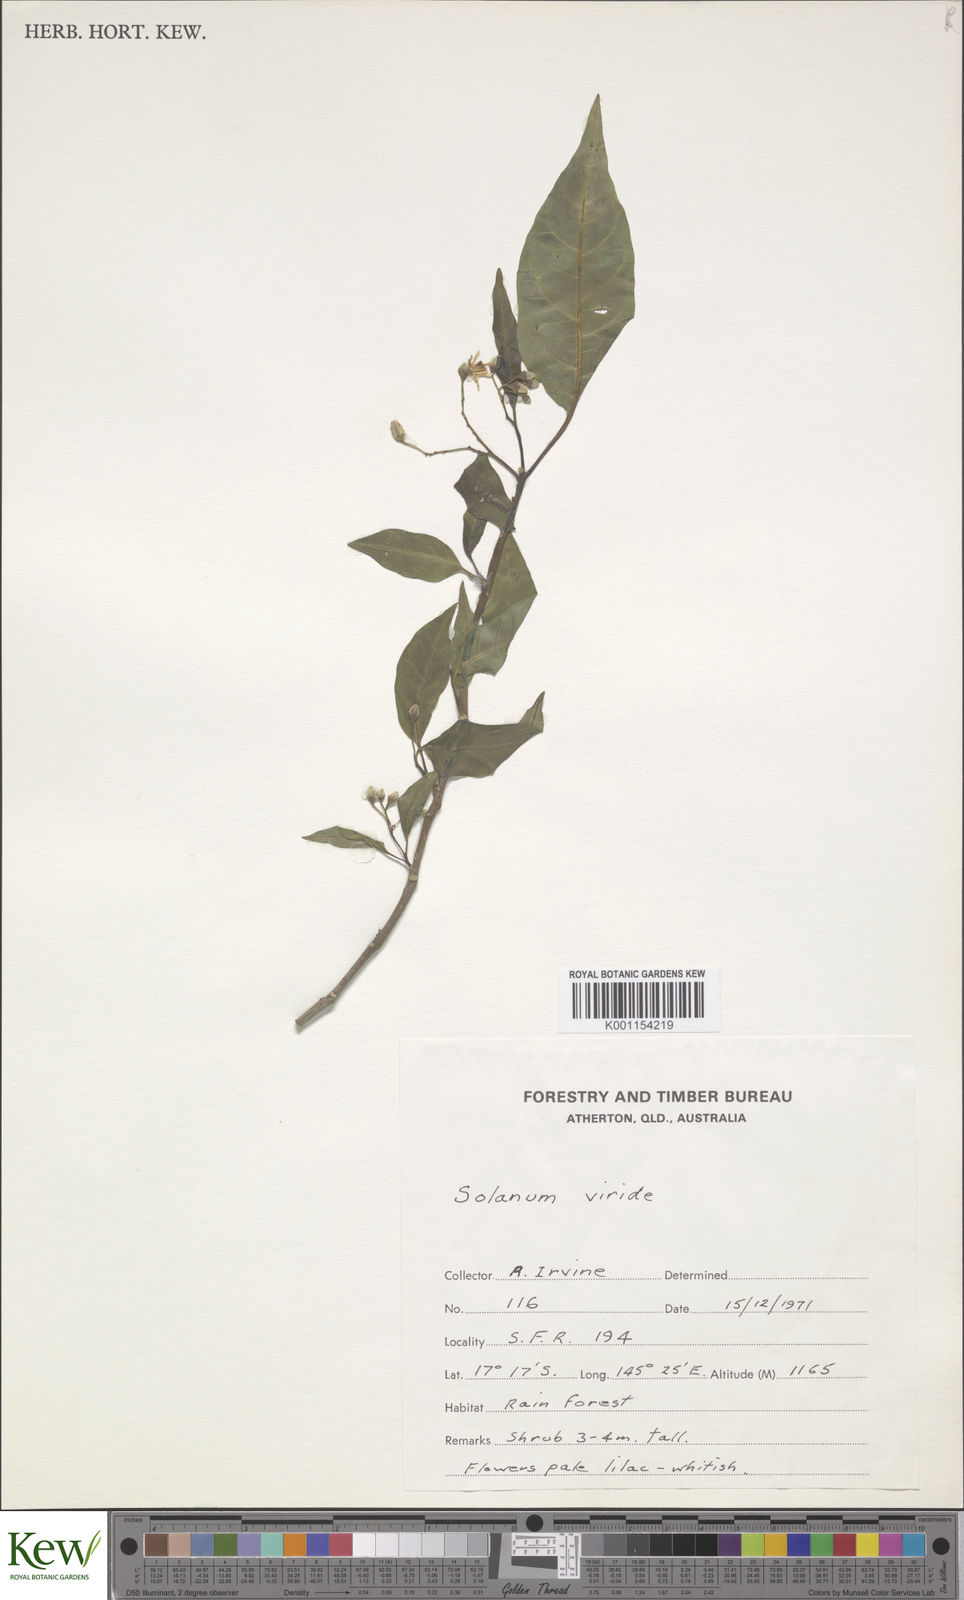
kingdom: Plantae
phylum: Tracheophyta
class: Magnoliopsida
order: Solanales
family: Solanaceae
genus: Solanum
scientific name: Solanum viridifolium
